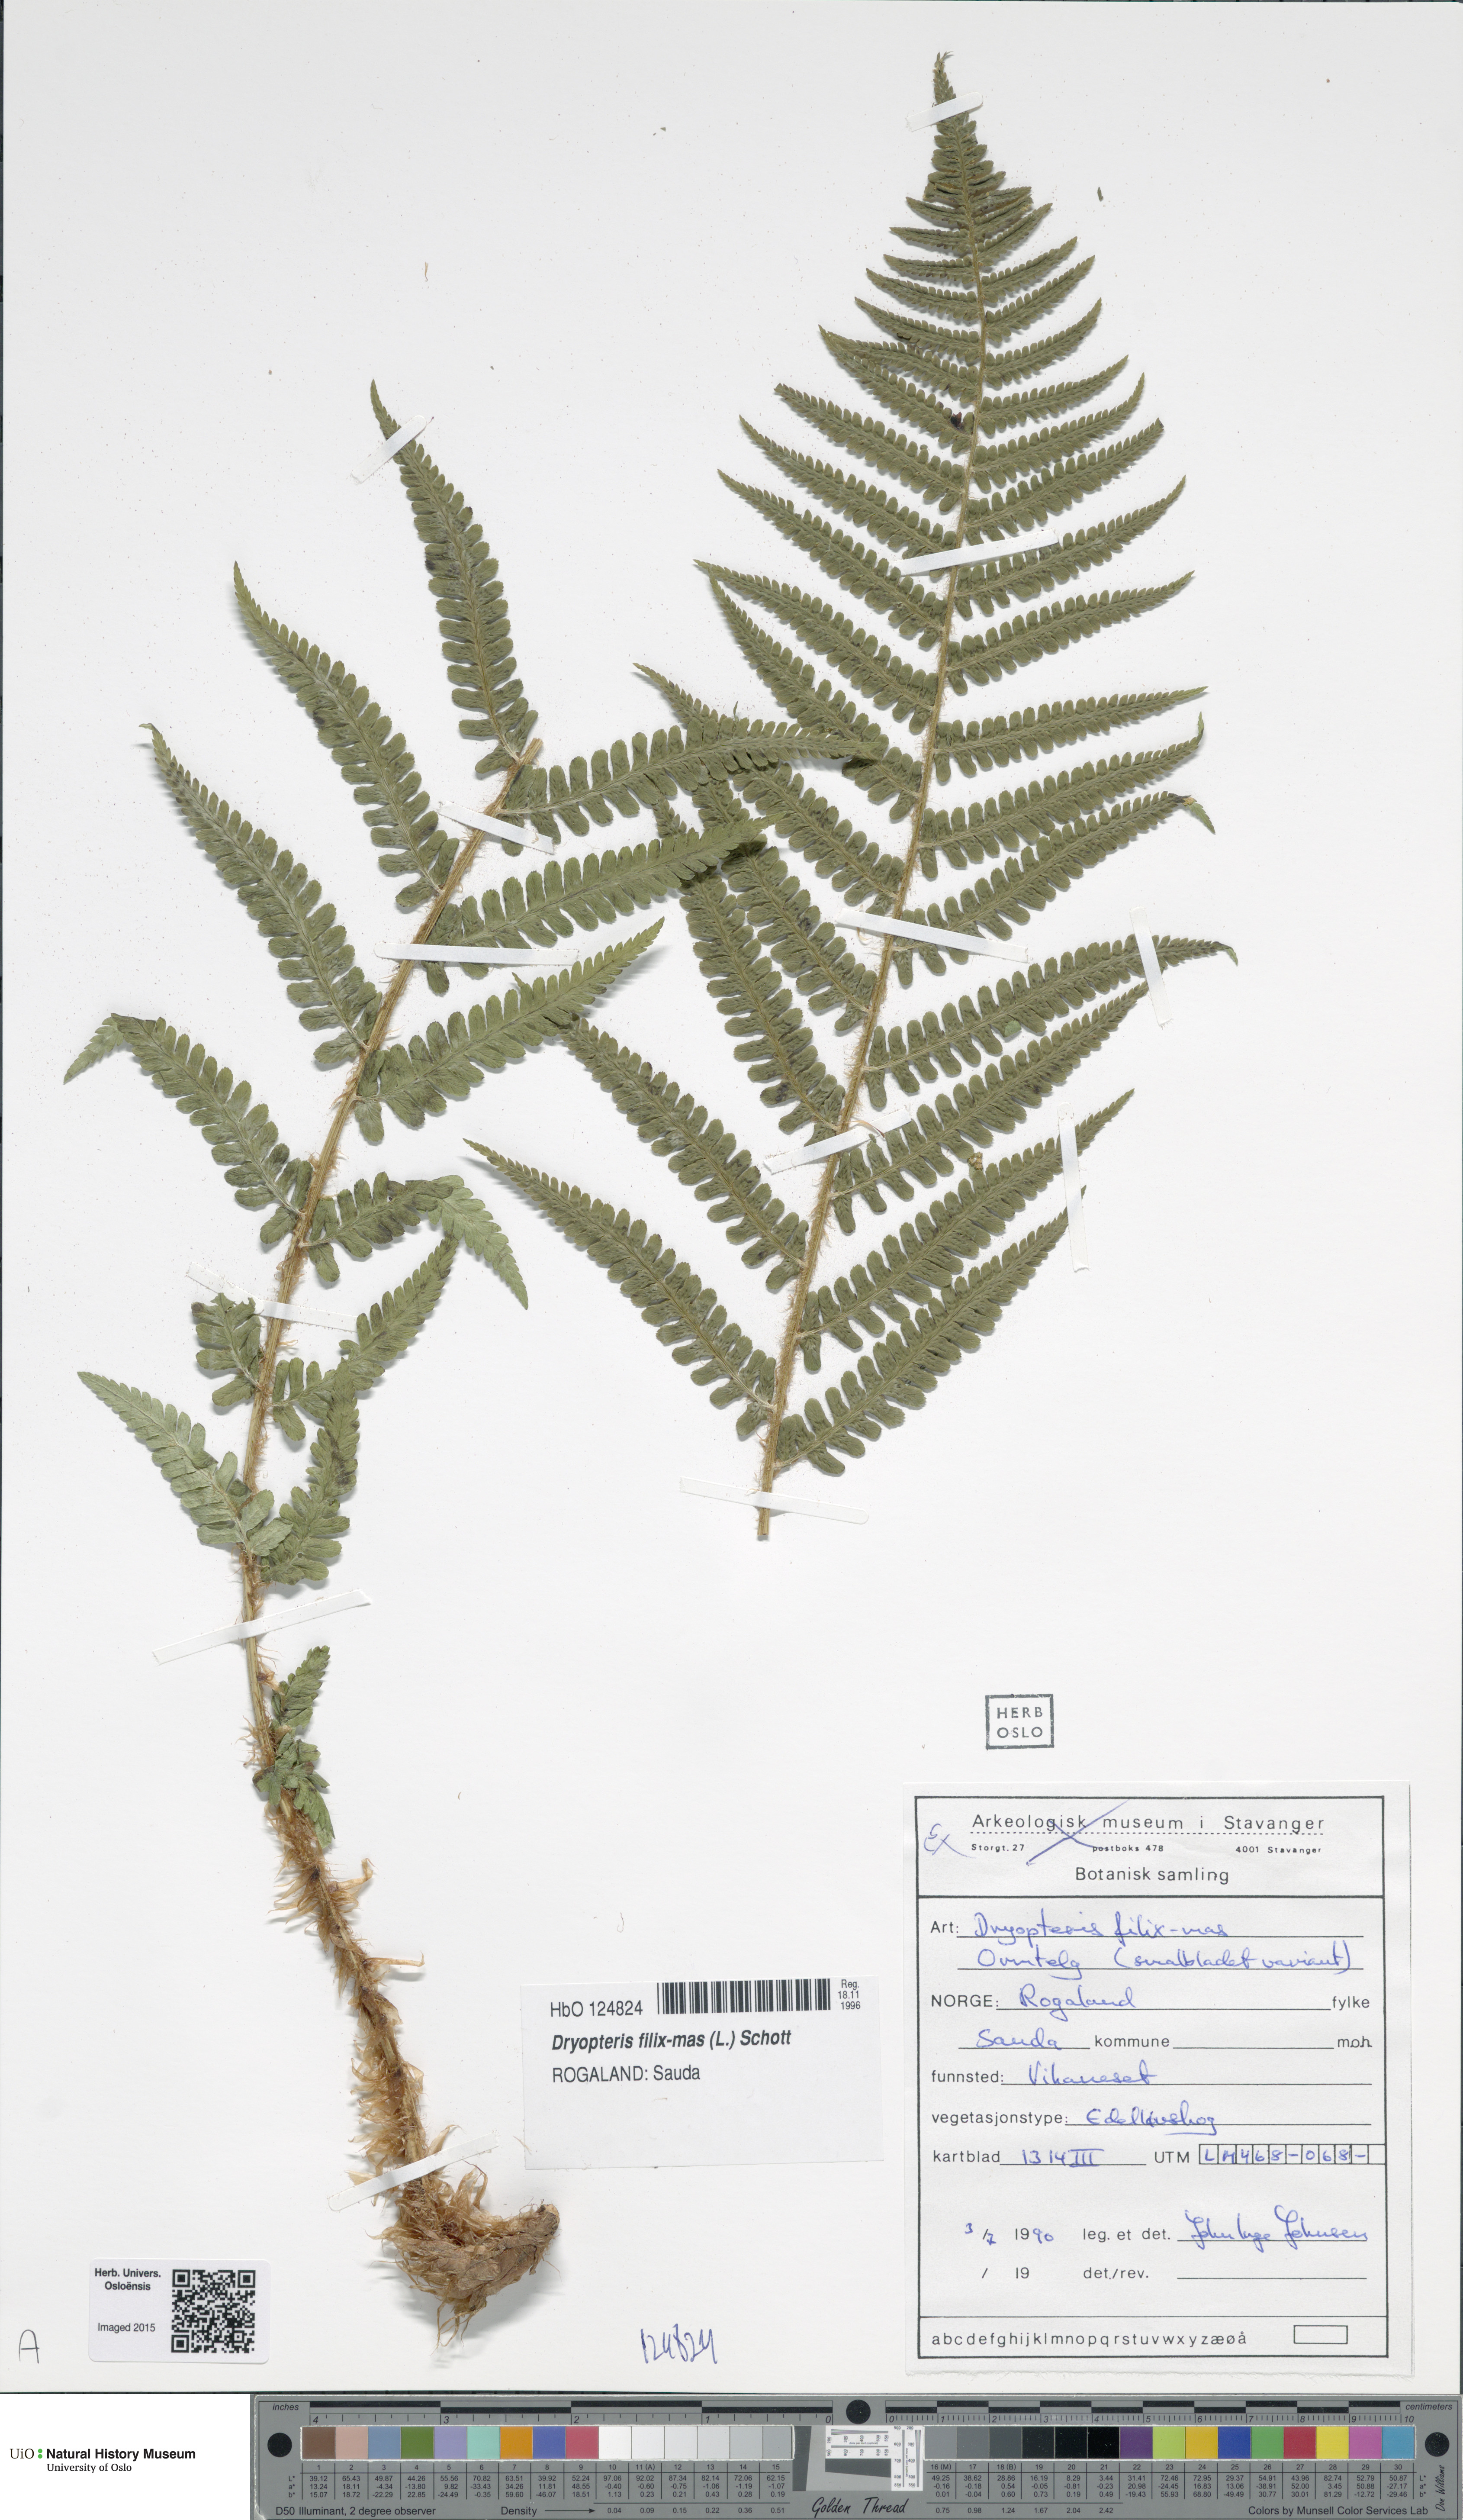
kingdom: Plantae
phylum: Tracheophyta
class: Polypodiopsida
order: Polypodiales
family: Dryopteridaceae
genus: Dryopteris
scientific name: Dryopteris filix-mas
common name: Male fern
